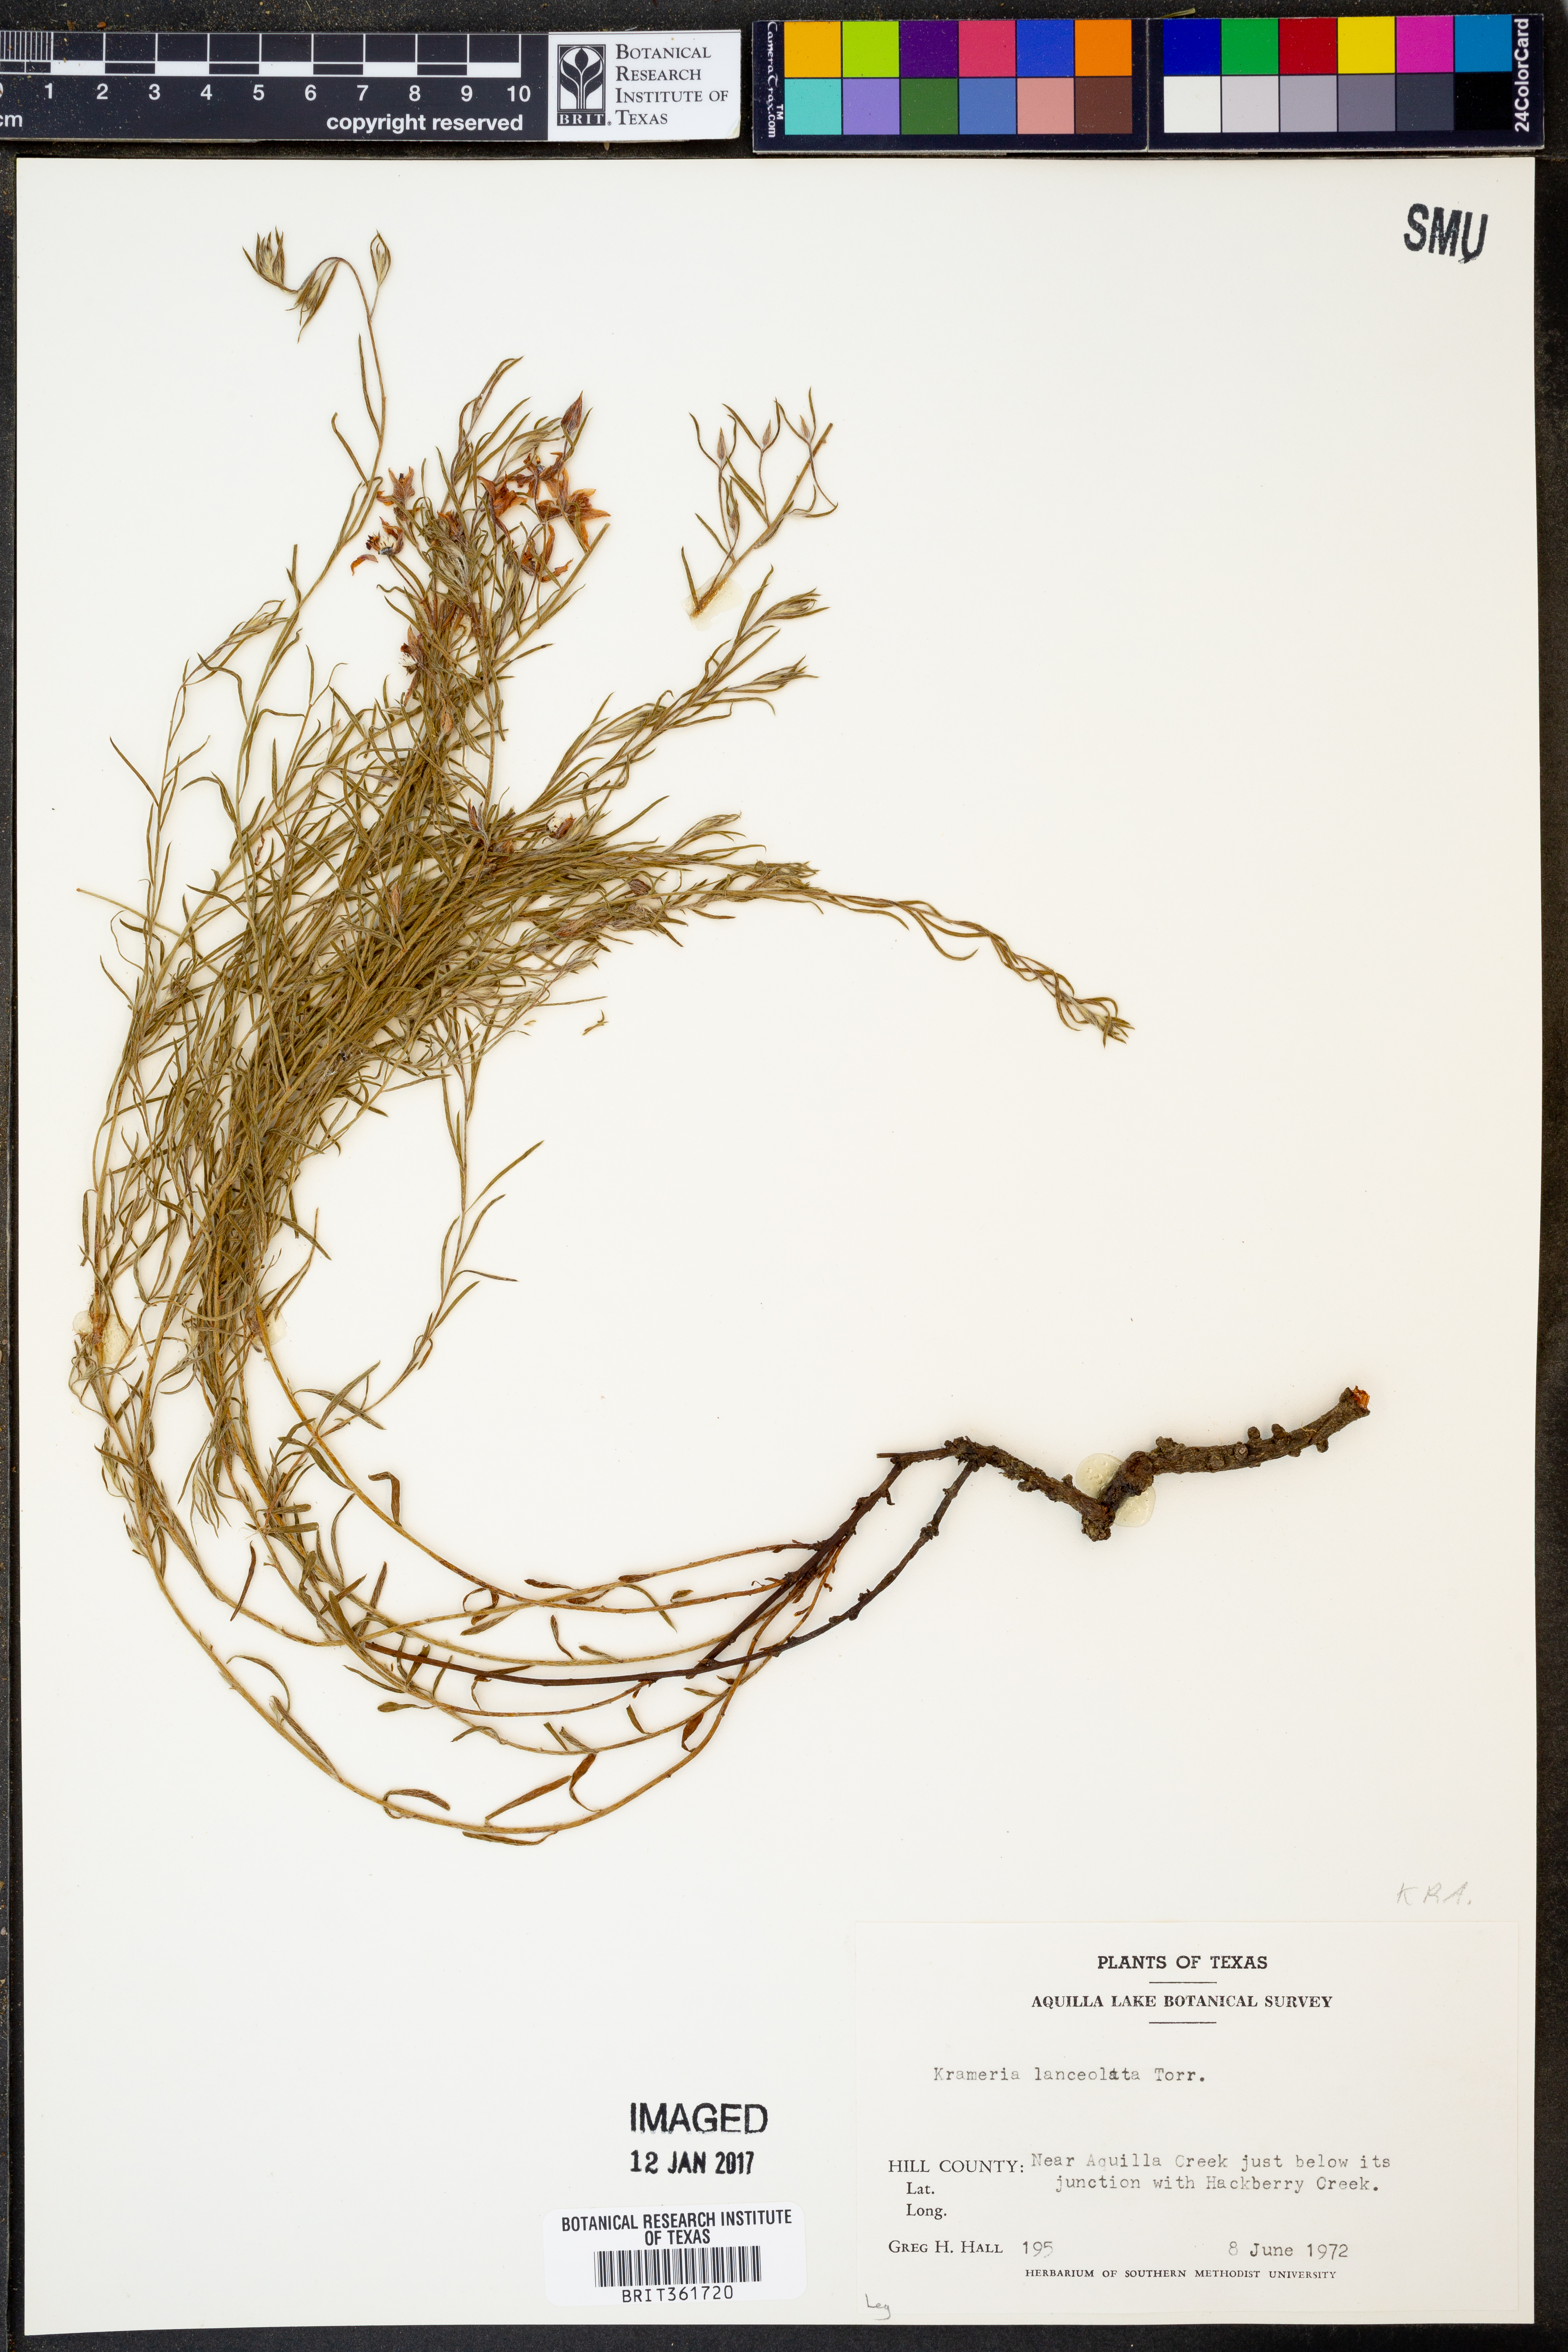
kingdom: Plantae
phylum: Tracheophyta
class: Magnoliopsida
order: Zygophyllales
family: Krameriaceae
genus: Krameria
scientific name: Krameria lanceolata
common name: Ratany
